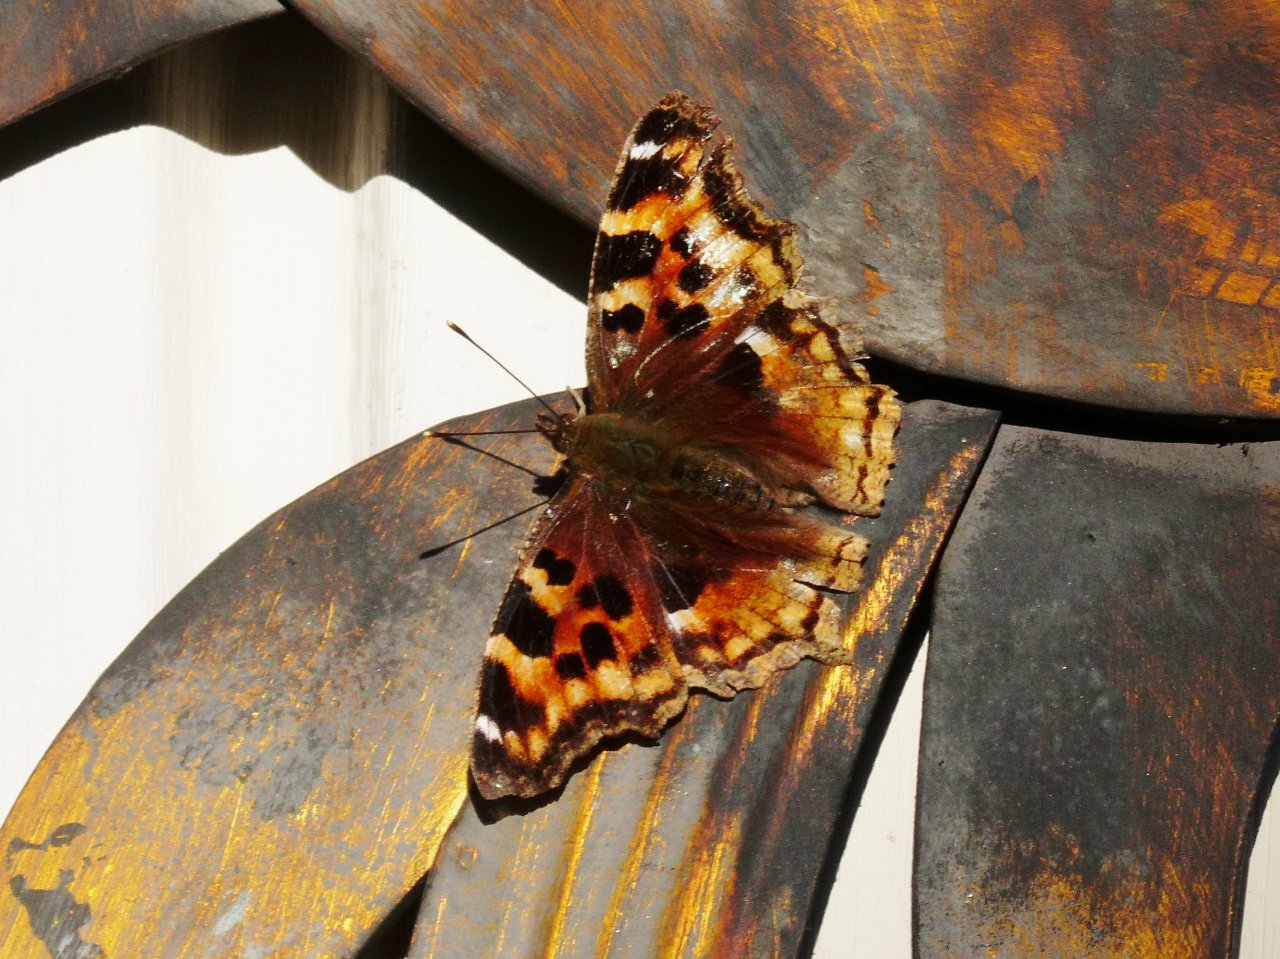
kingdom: Animalia
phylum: Arthropoda
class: Insecta
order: Lepidoptera
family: Nymphalidae
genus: Polygonia
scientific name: Polygonia vaualbum
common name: Compton Tortoiseshell
